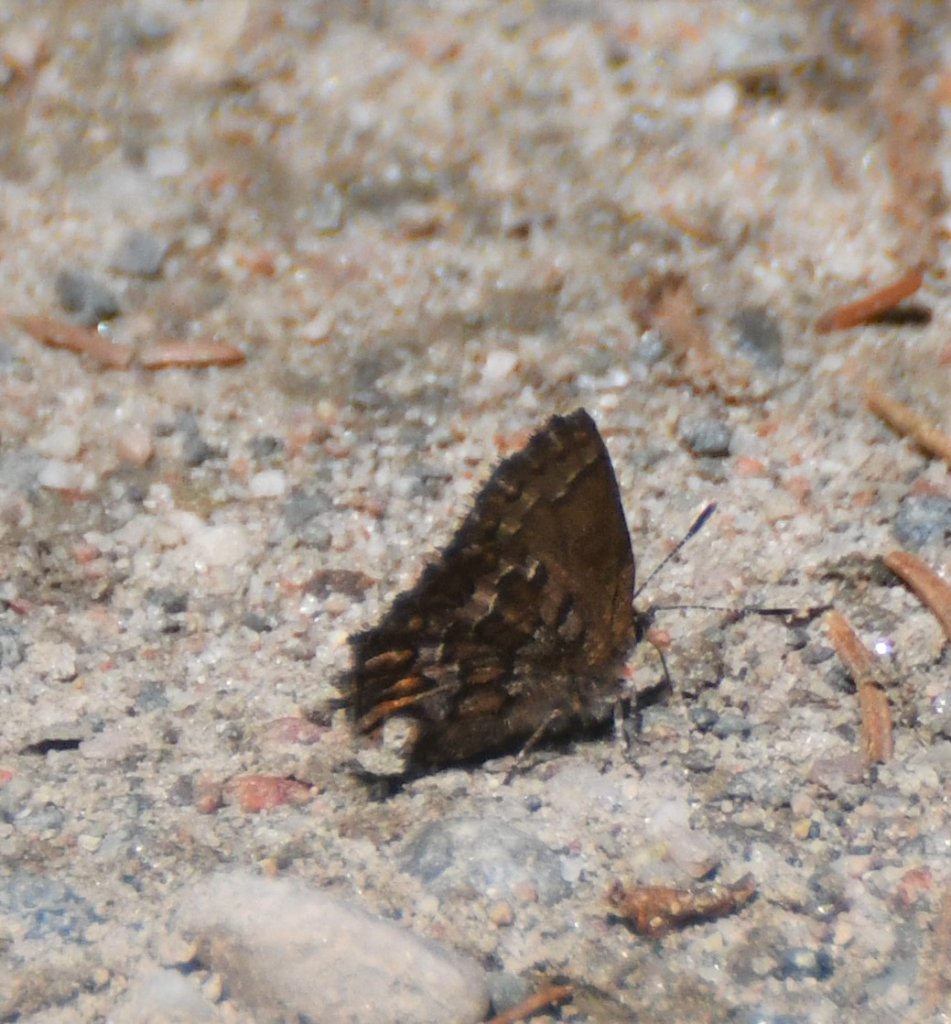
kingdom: Animalia
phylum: Arthropoda
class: Insecta
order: Lepidoptera
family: Lycaenidae
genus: Incisalia
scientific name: Incisalia niphon
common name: Eastern Pine Elfin
